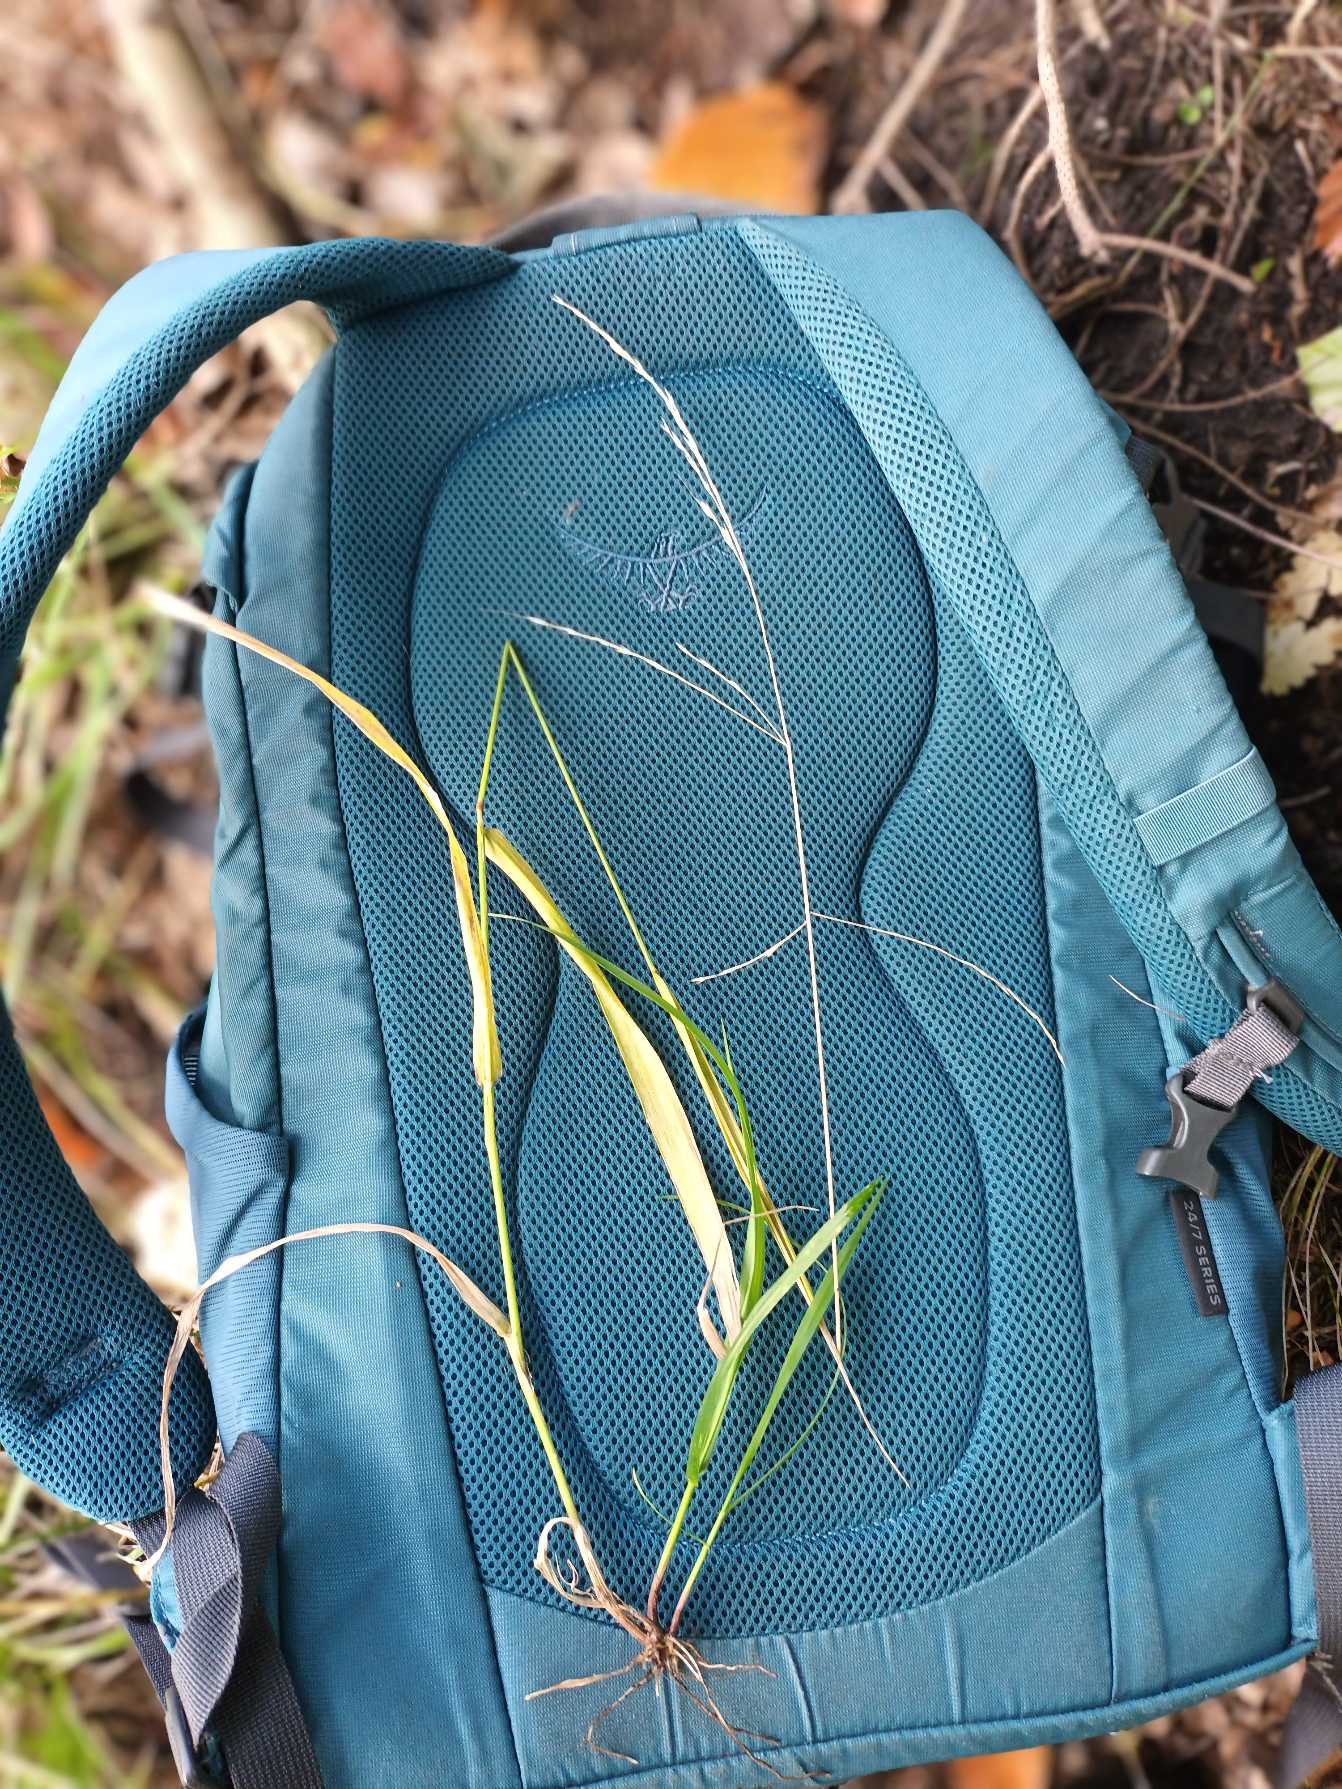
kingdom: Plantae
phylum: Tracheophyta
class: Liliopsida
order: Poales
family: Poaceae
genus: Lolium
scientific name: Lolium giganteum
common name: Kæmpe-svingel
